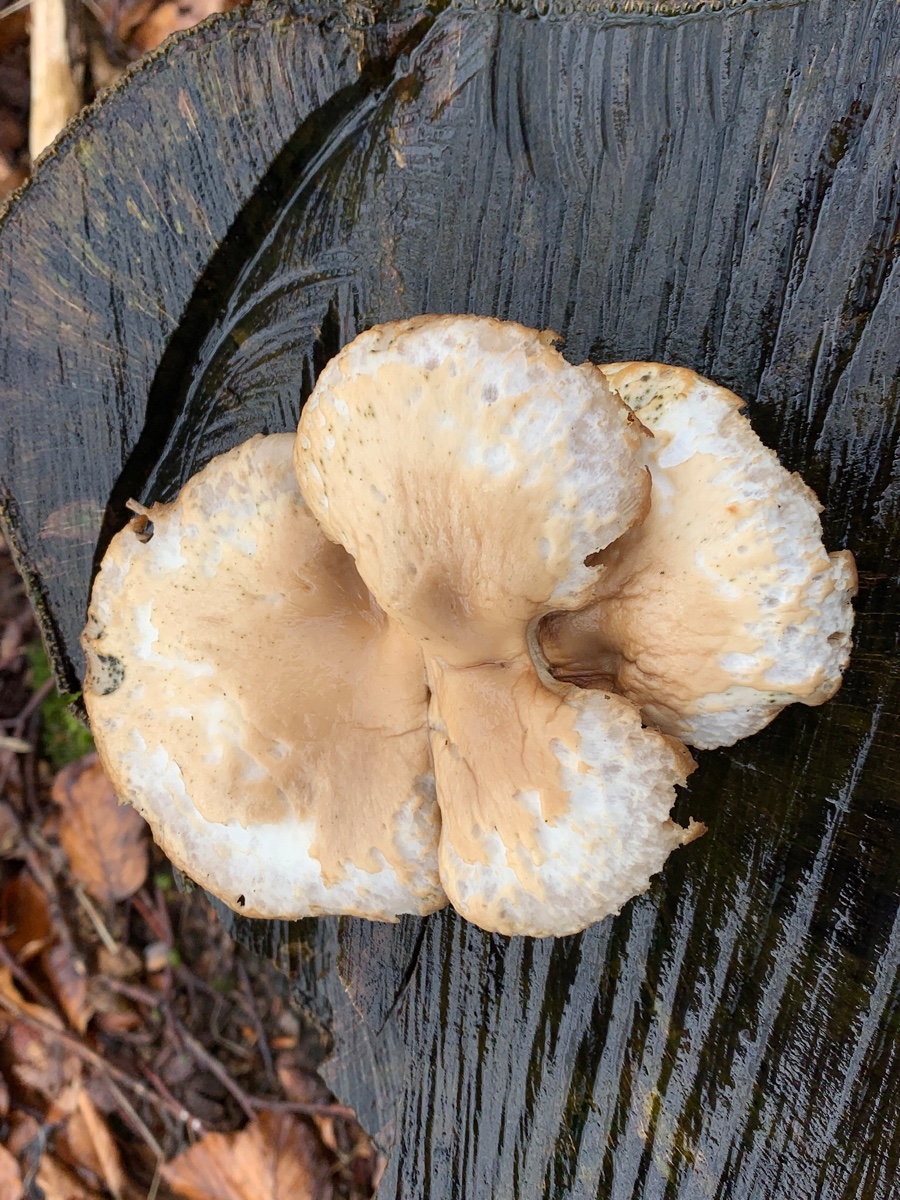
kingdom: Fungi
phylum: Basidiomycota
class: Agaricomycetes
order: Agaricales
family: Pleurotaceae
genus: Pleurotus
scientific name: Pleurotus ostreatus
